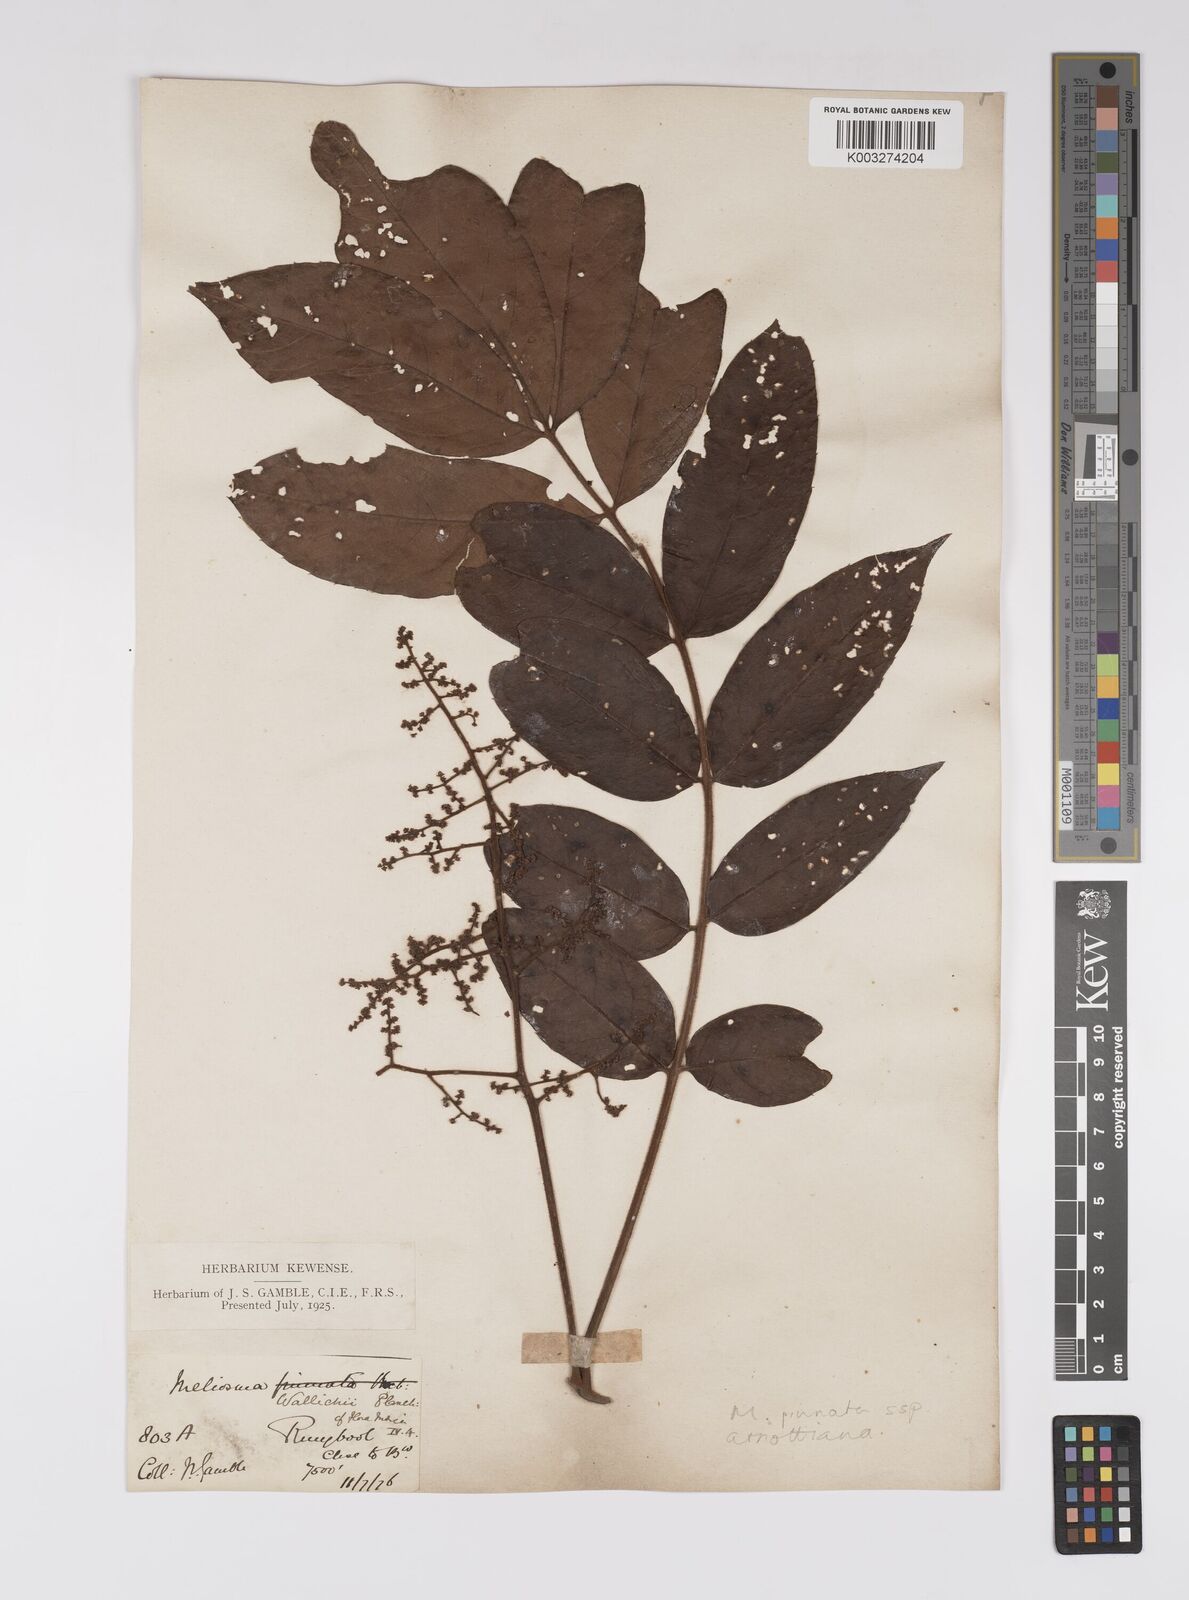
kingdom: Plantae
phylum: Tracheophyta
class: Magnoliopsida
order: Proteales
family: Sabiaceae
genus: Meliosma
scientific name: Meliosma rhoifolia
